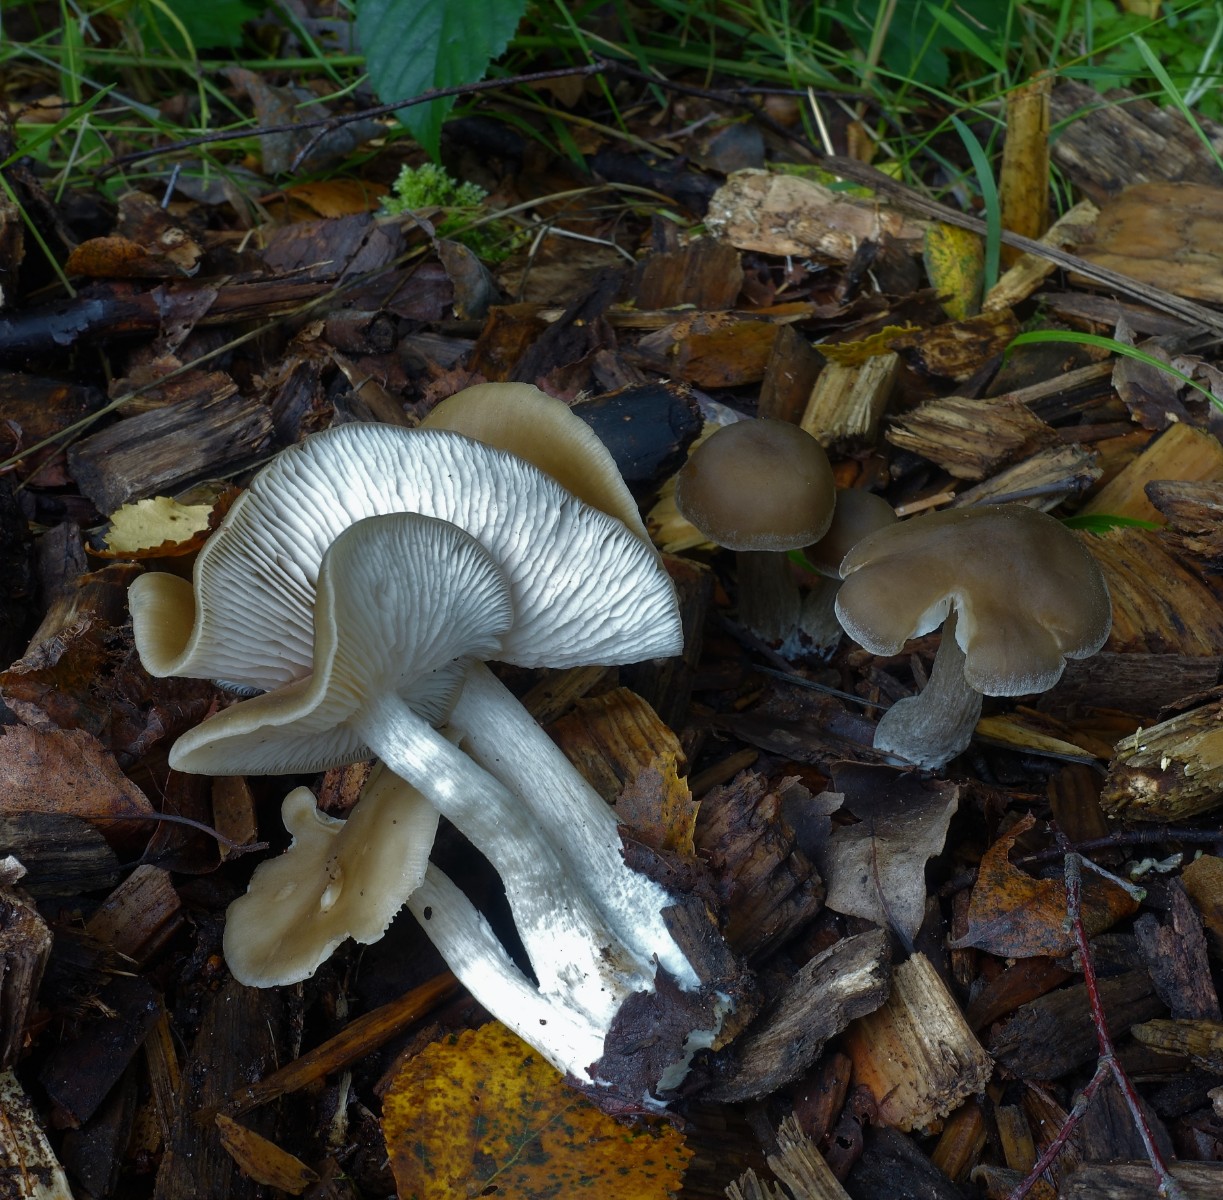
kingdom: Fungi
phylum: Basidiomycota
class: Agaricomycetes
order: Agaricales
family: Entolomataceae
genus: Entoloma
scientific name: Entoloma sericatum
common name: rank rødblad
